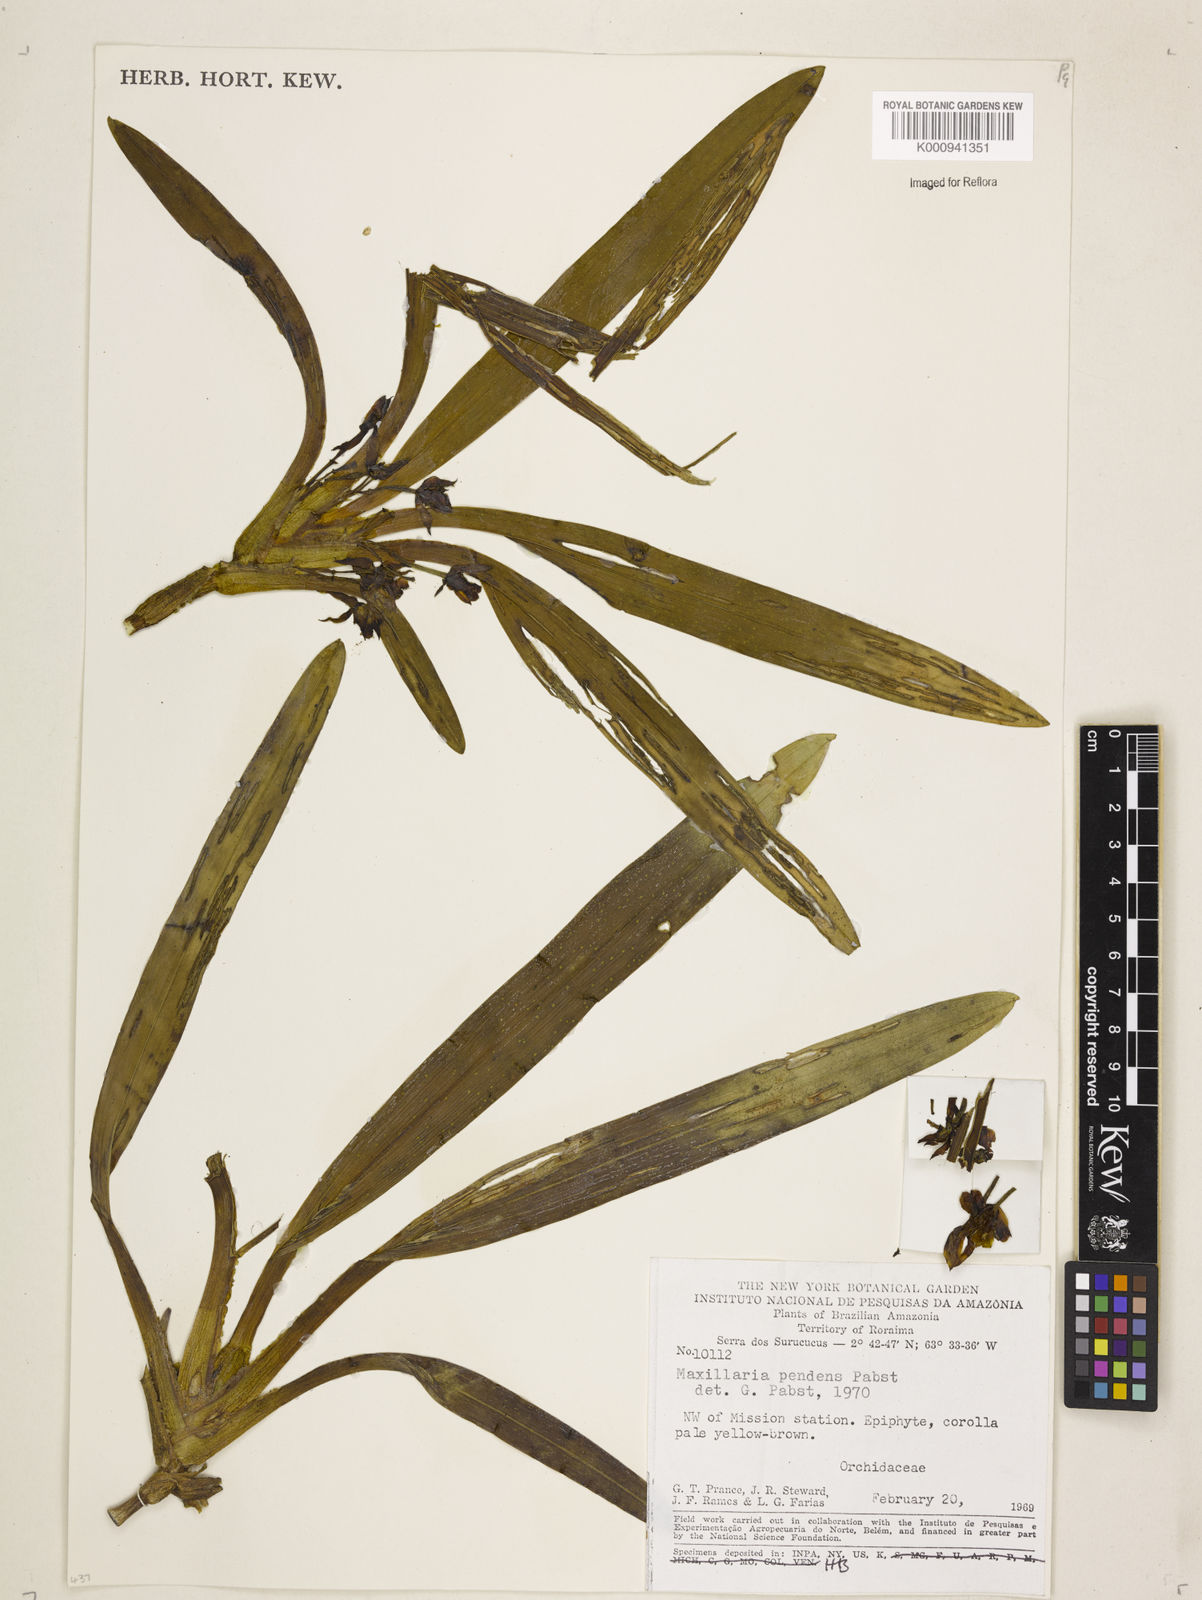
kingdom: Plantae
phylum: Tracheophyta
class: Liliopsida
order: Asparagales
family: Orchidaceae
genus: Maxillaria
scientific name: Maxillaria pendens
